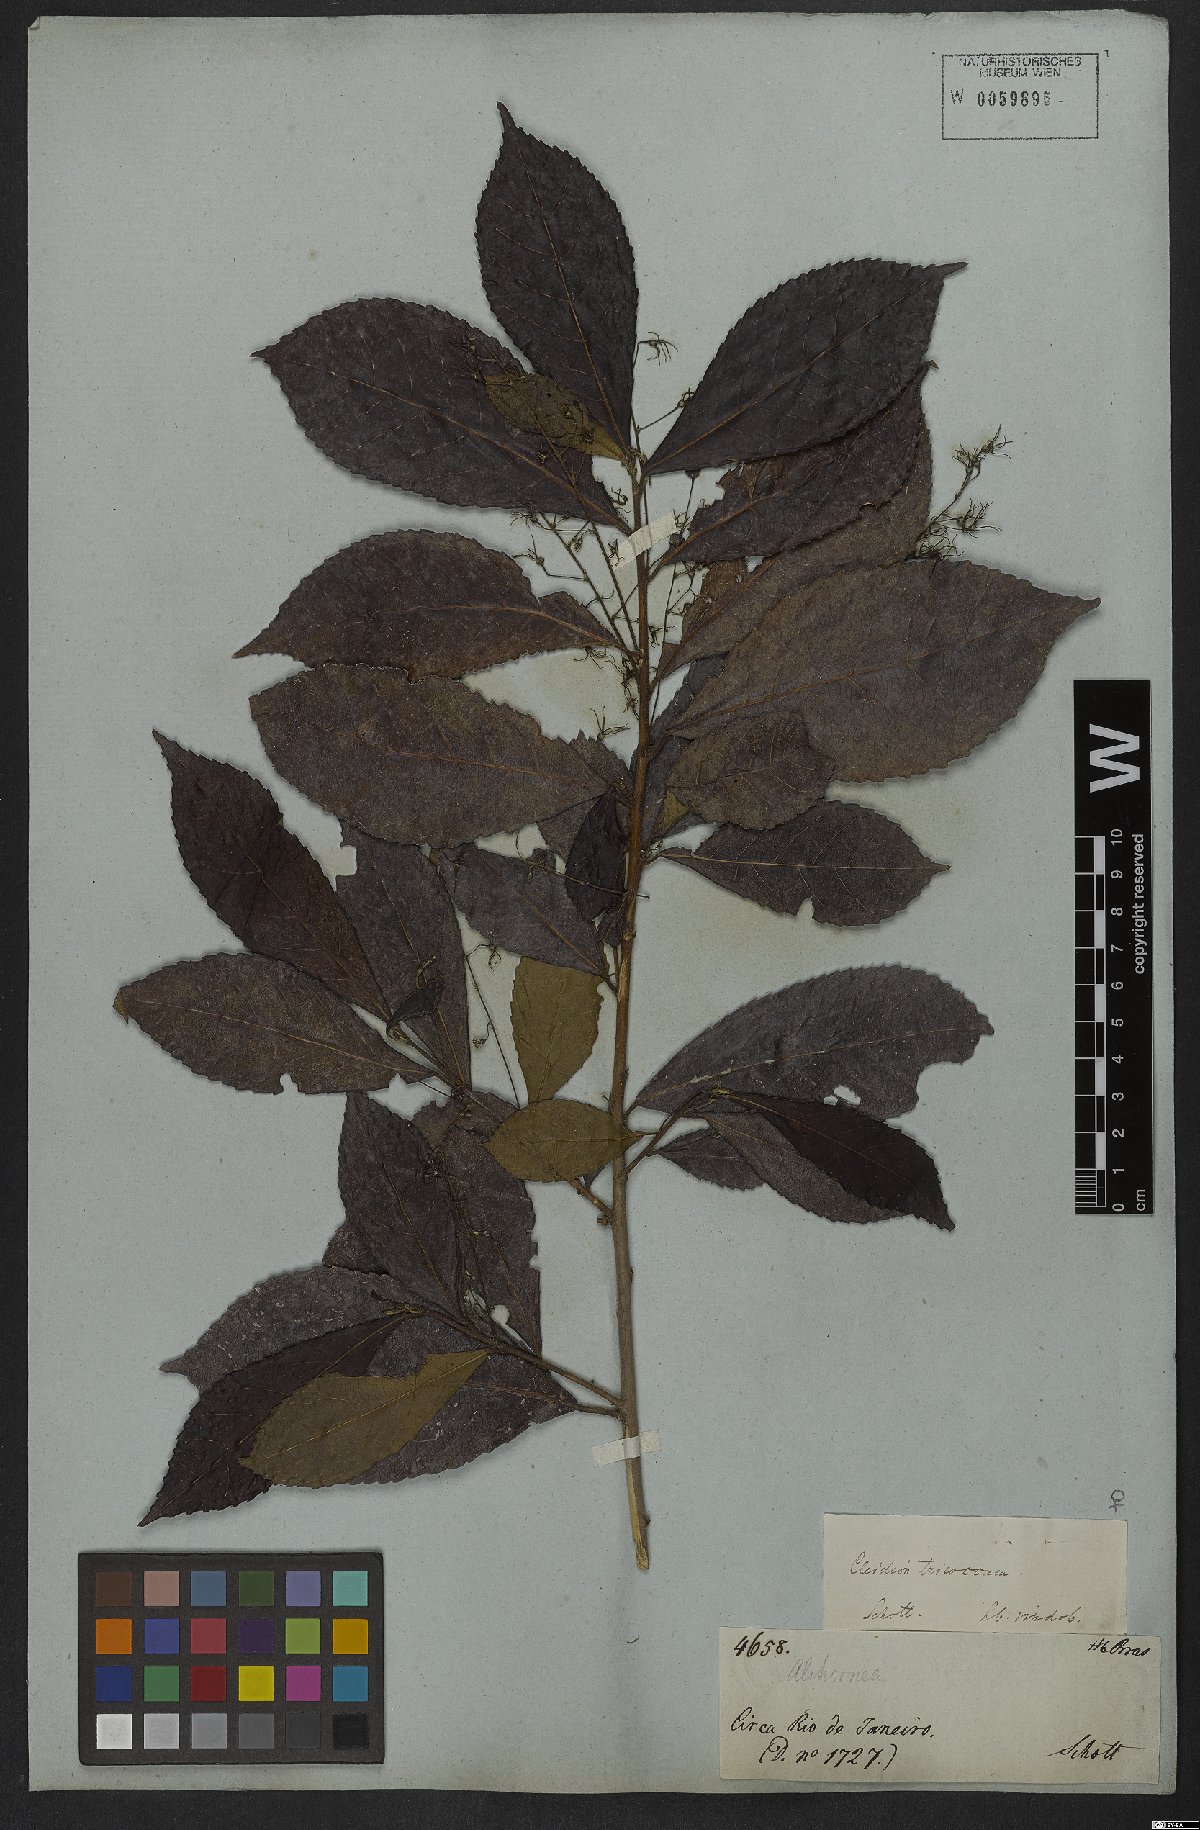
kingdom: Plantae
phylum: Tracheophyta
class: Magnoliopsida
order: Malpighiales
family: Euphorbiaceae
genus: Cleidion
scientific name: Cleidion tricoccum
